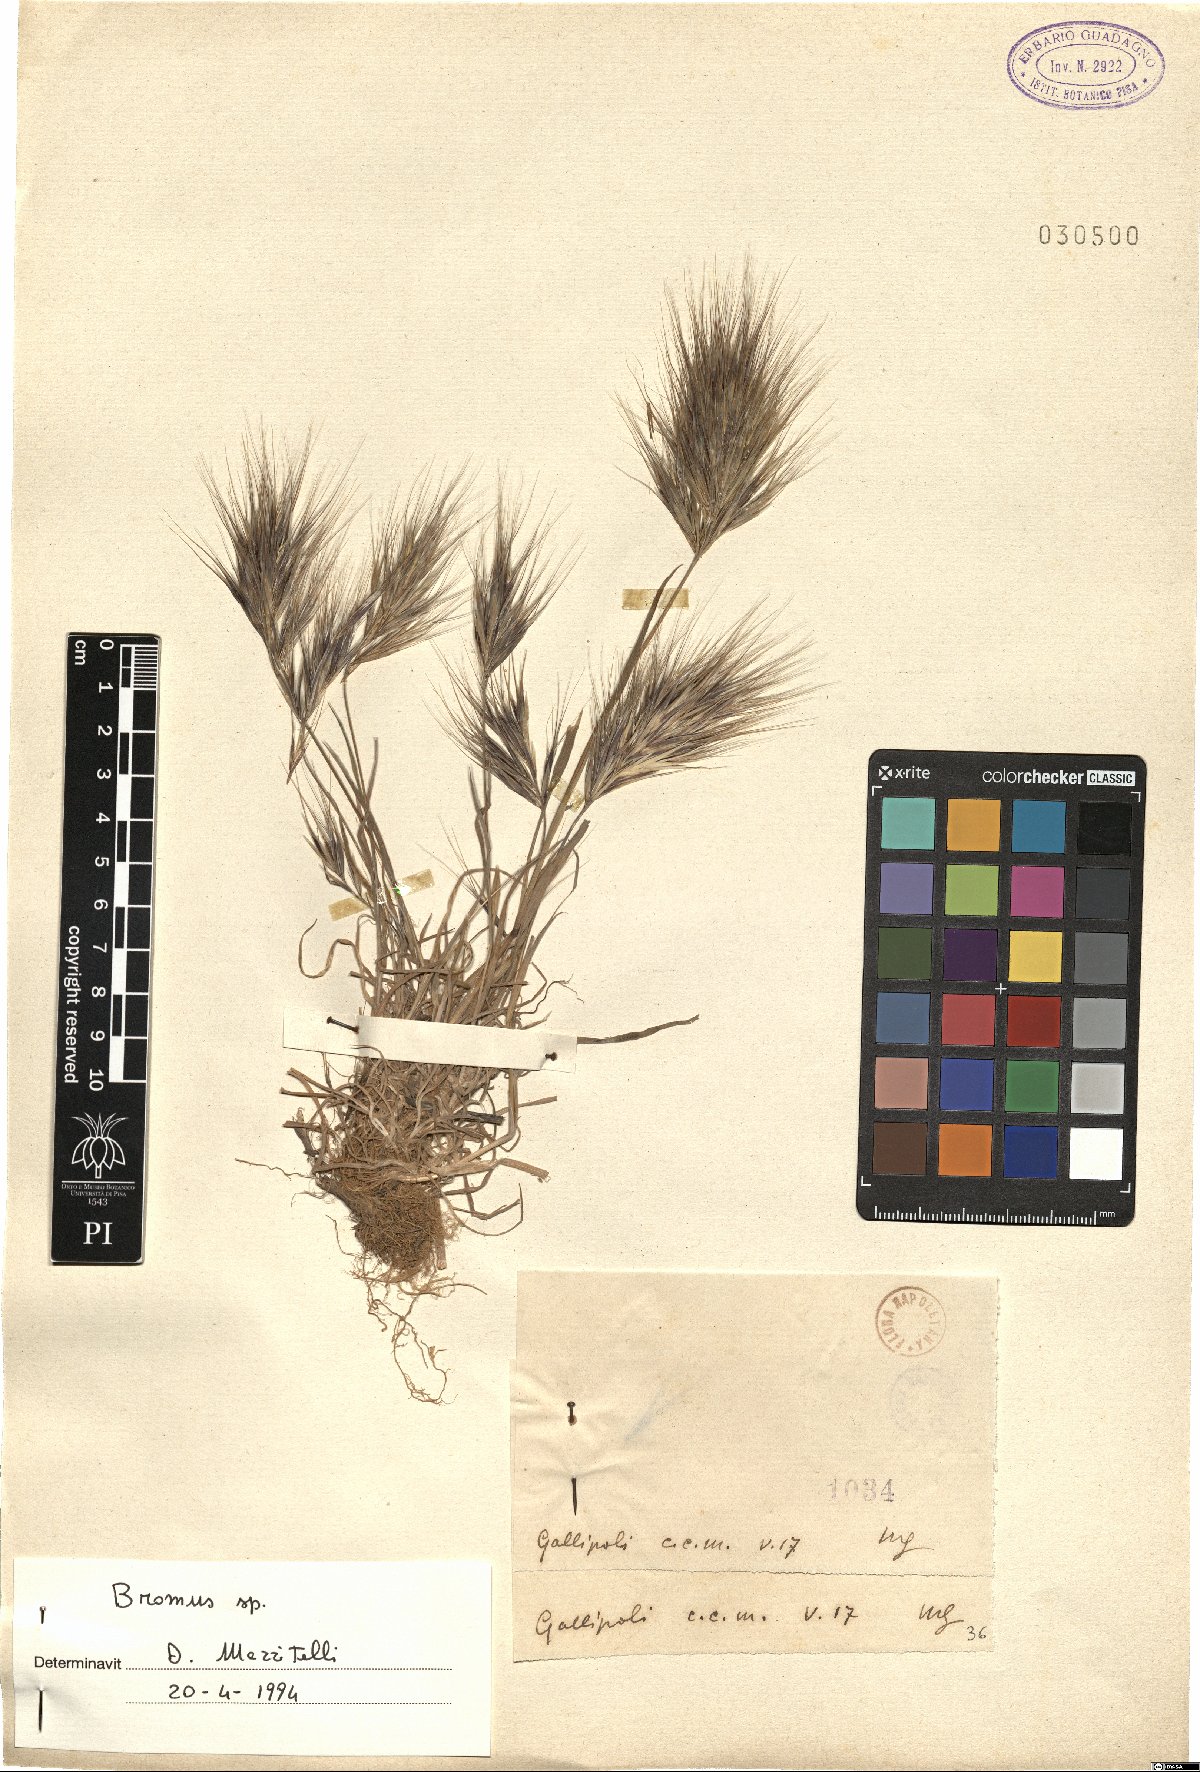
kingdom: Plantae
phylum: Tracheophyta
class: Liliopsida
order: Poales
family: Poaceae
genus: Bromus
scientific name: Bromus
